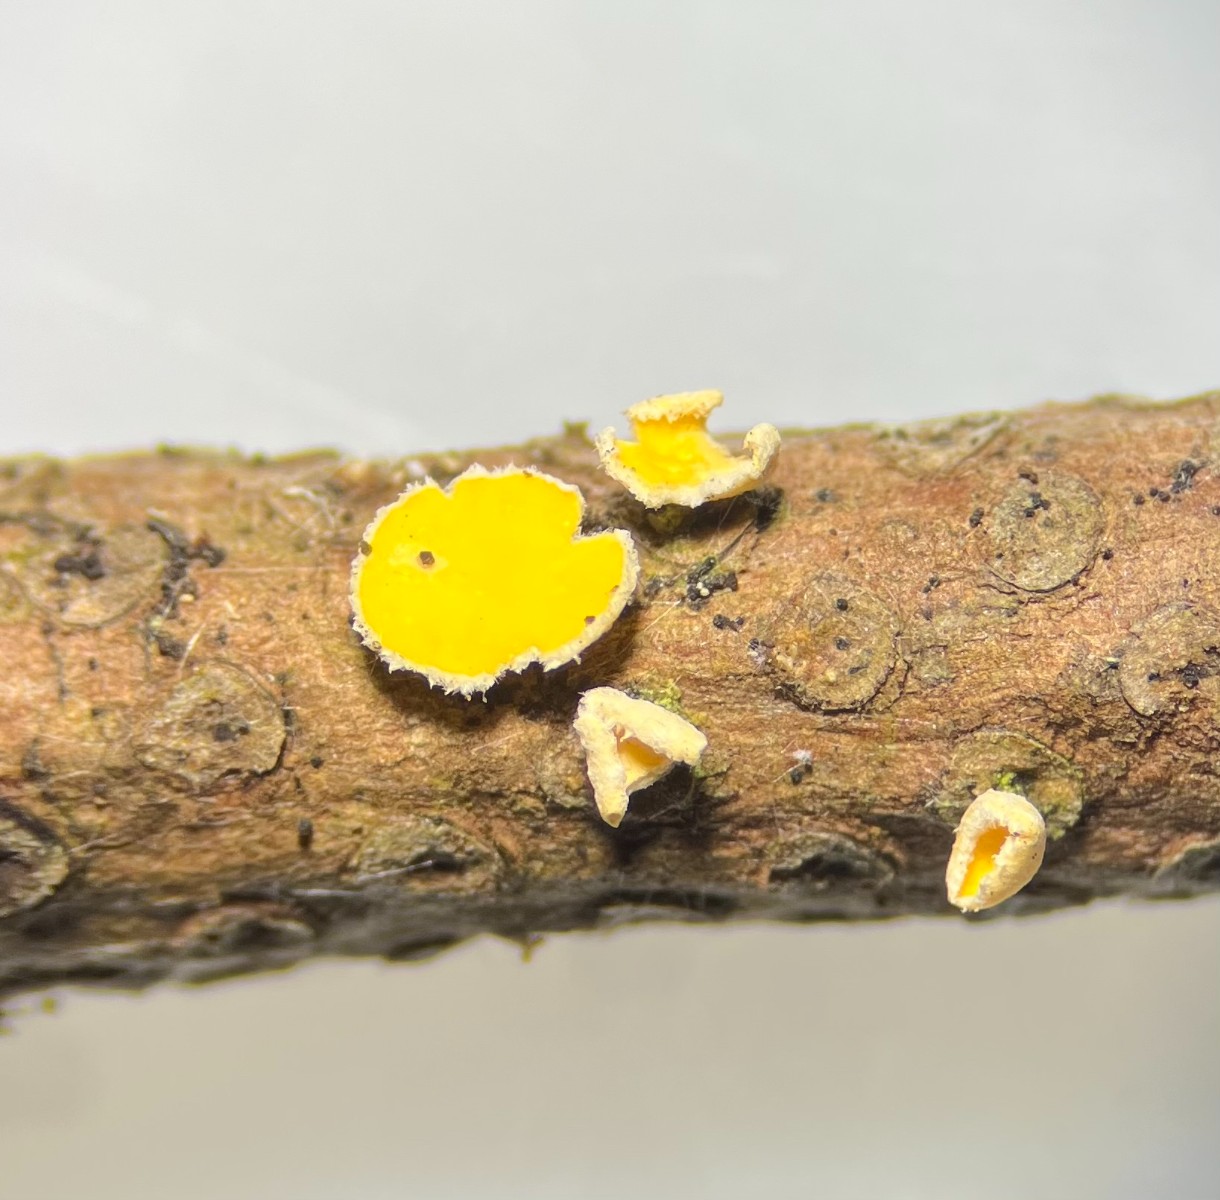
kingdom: Fungi
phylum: Ascomycota
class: Leotiomycetes
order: Helotiales
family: Lachnaceae
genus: Perrotia
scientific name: Perrotia gallica
